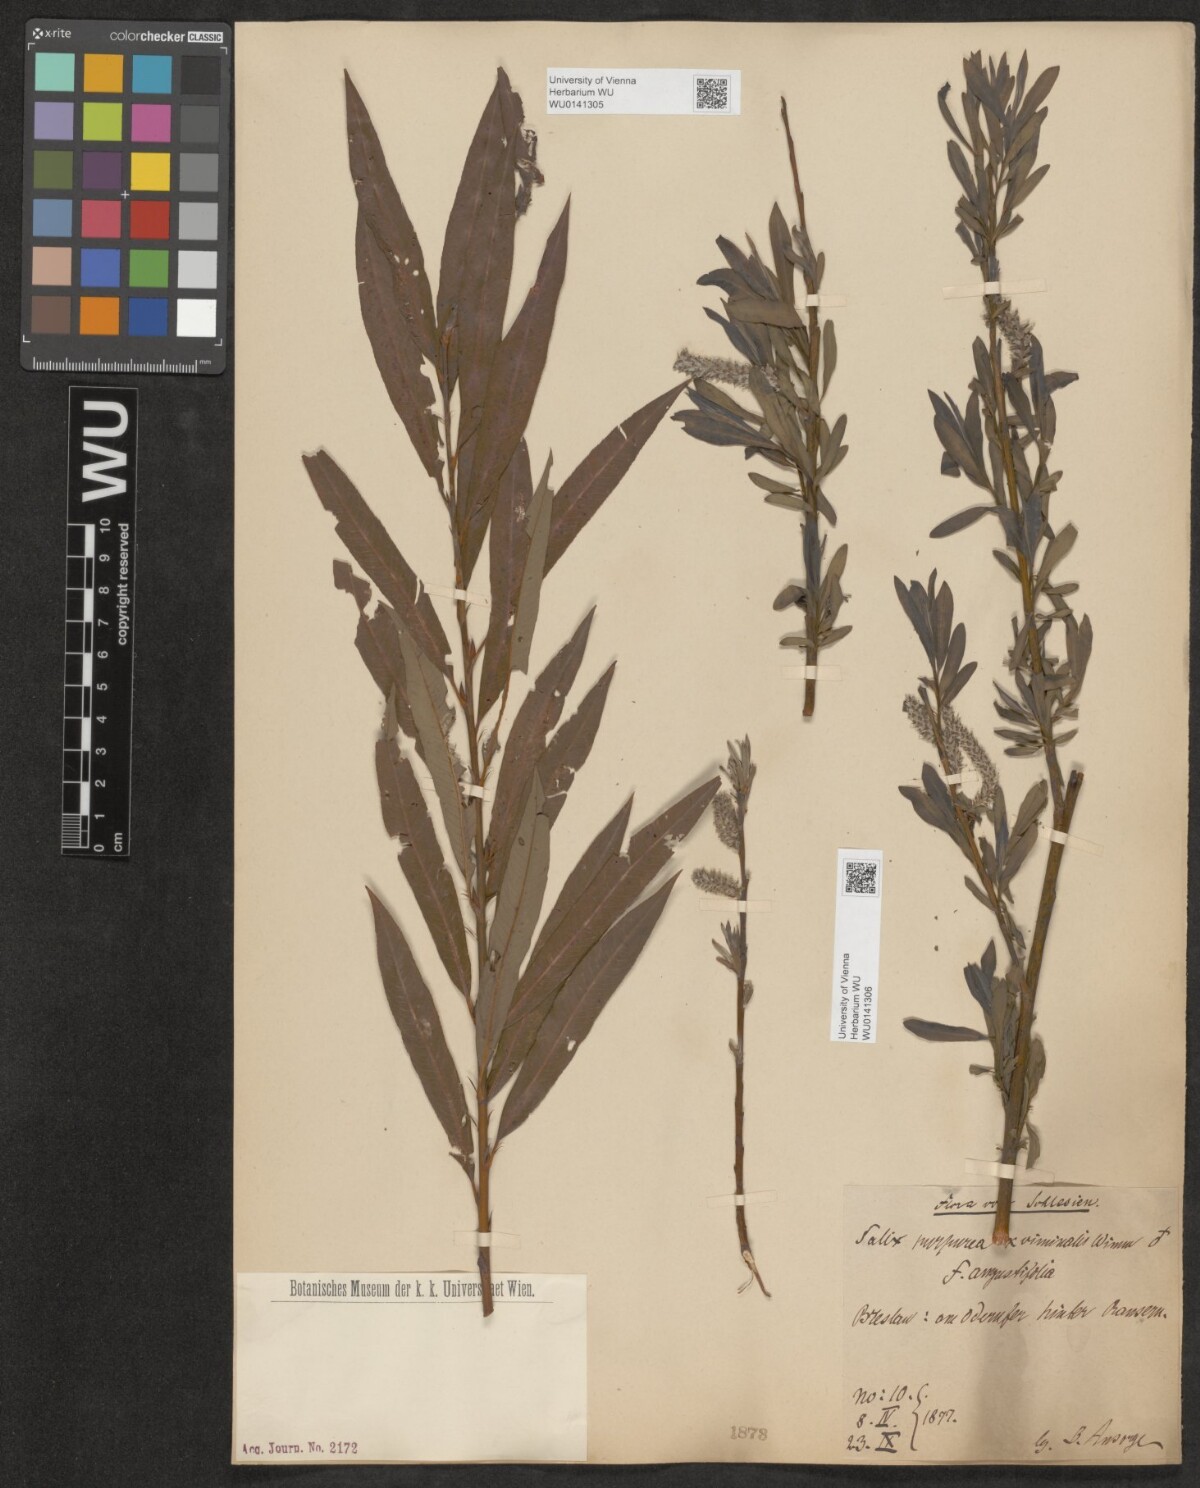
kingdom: Plantae
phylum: Tracheophyta
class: Magnoliopsida
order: Malpighiales
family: Salicaceae
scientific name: Salicaceae
